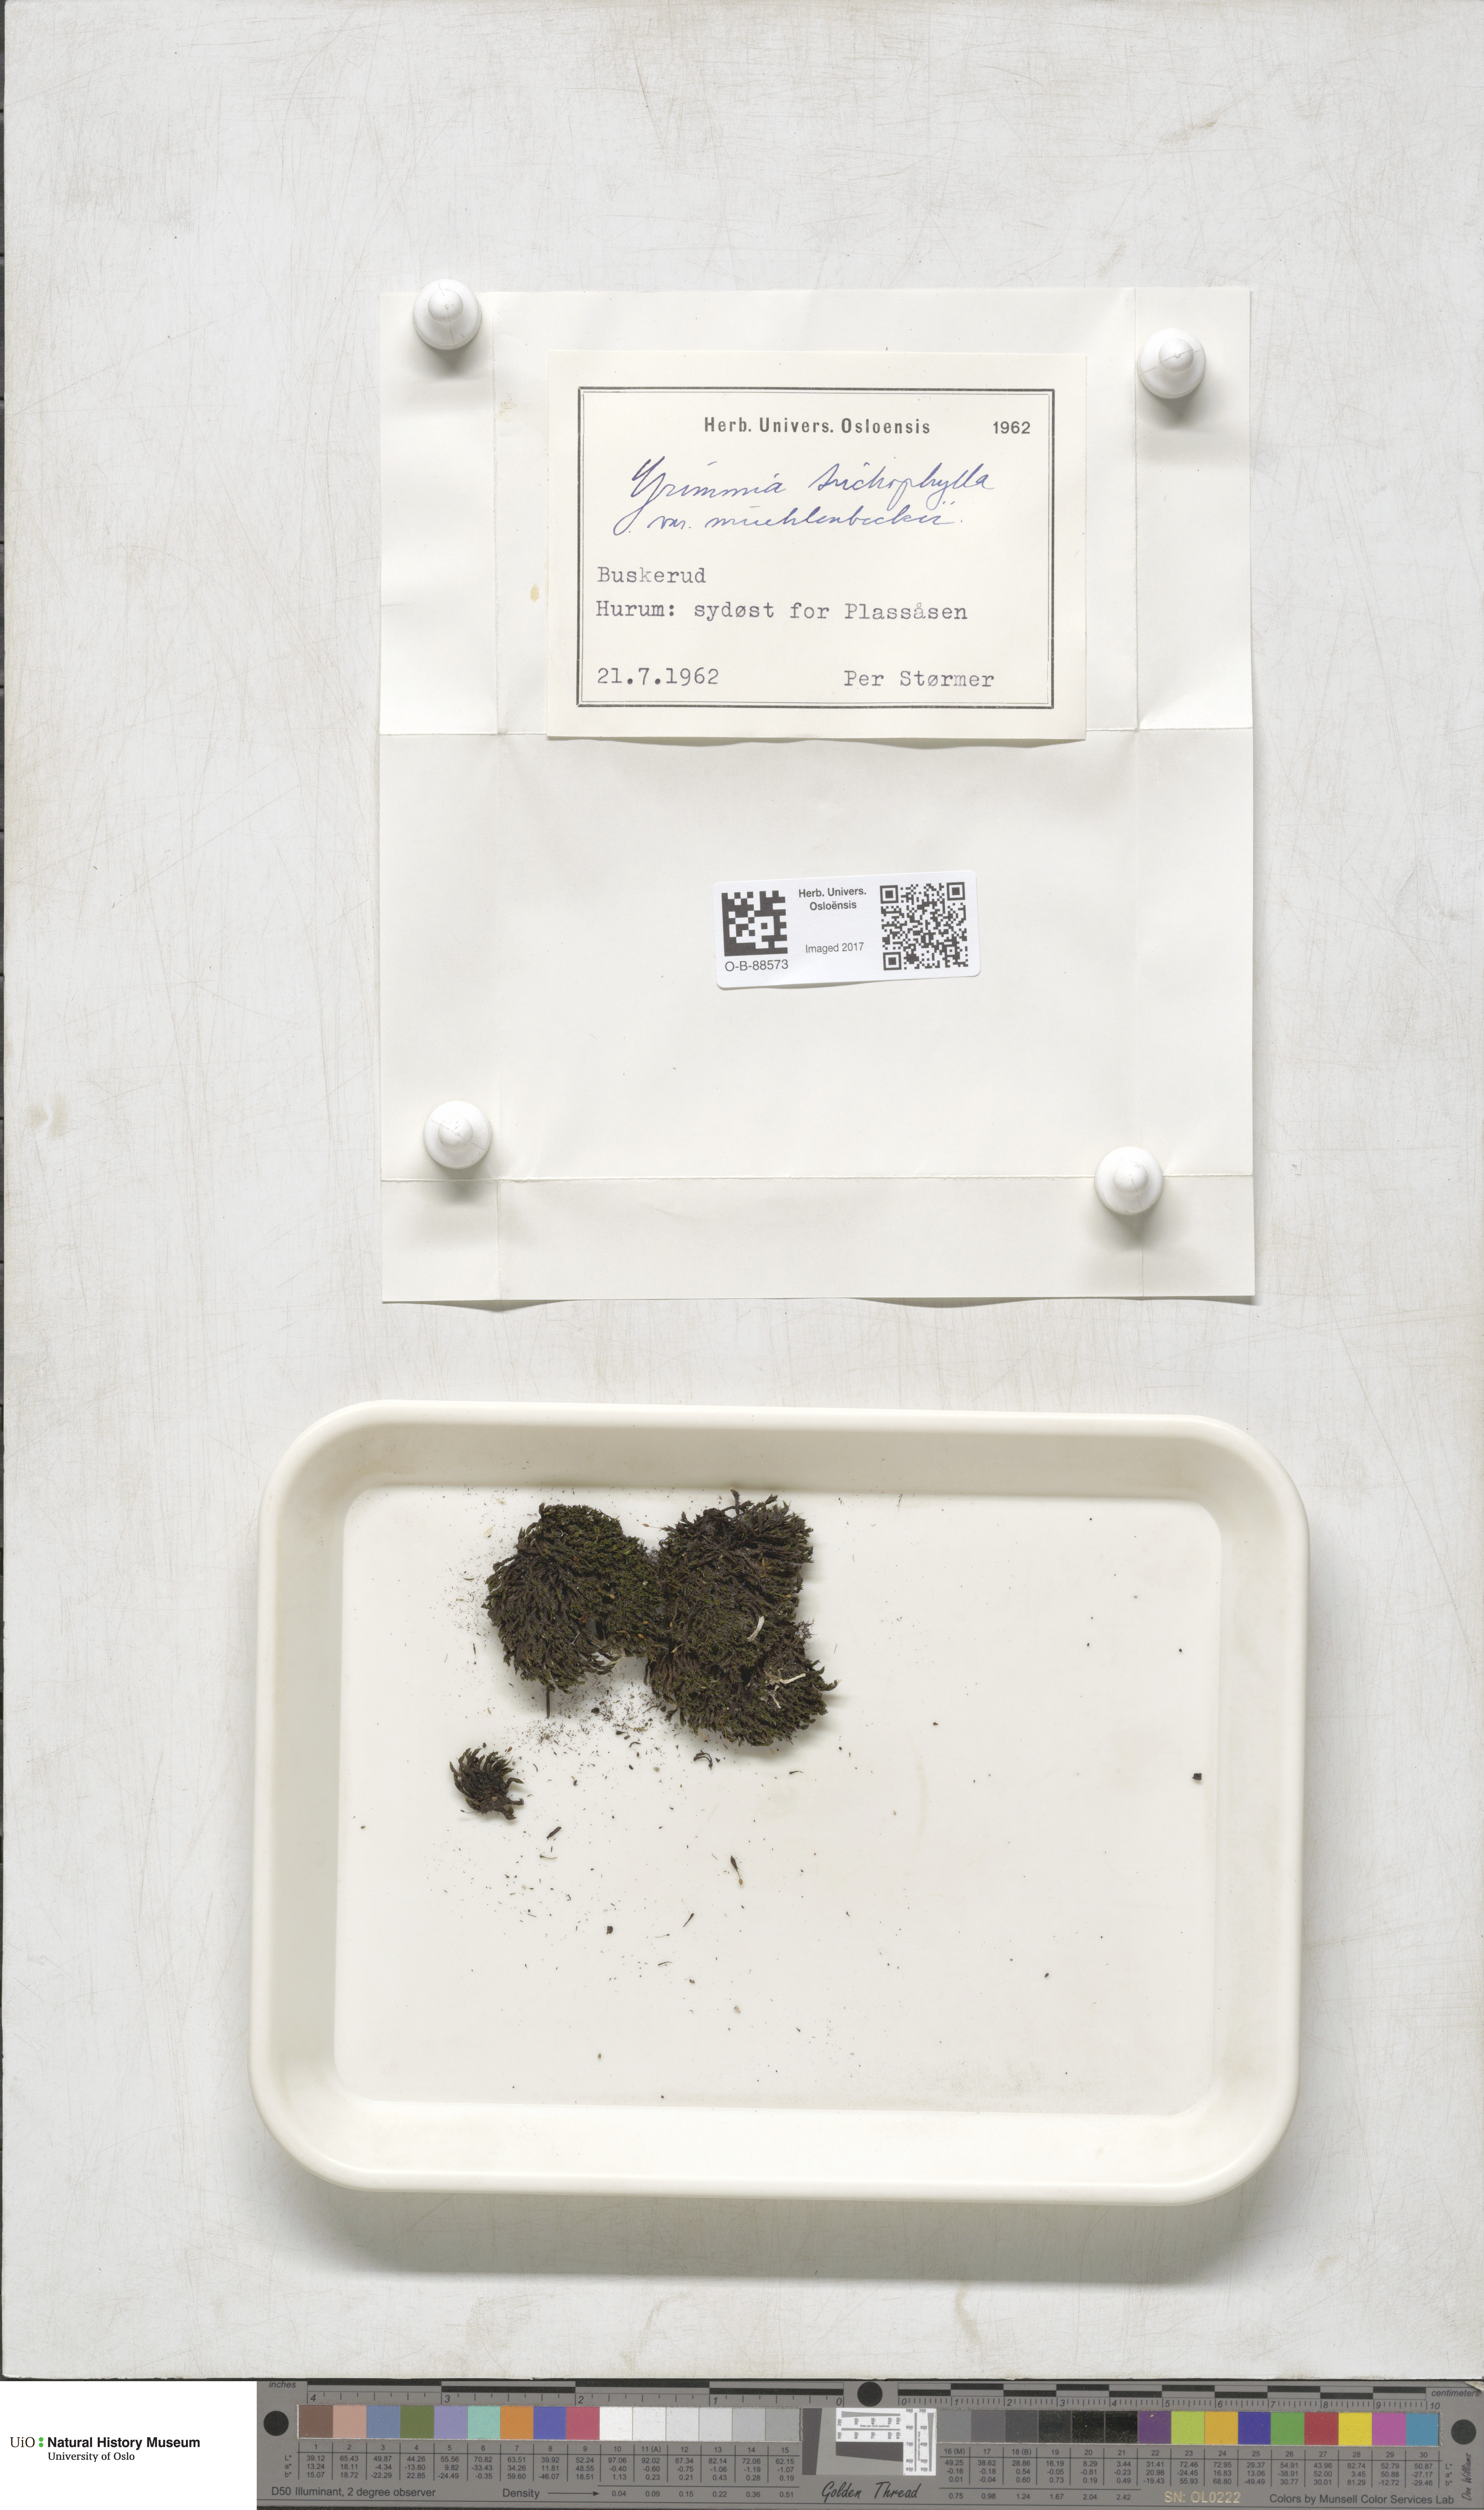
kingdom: Plantae
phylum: Bryophyta
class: Bryopsida
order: Grimmiales
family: Grimmiaceae
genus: Grimmia
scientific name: Grimmia muehlenbeckii
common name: Muehlenbeck's grimmia
